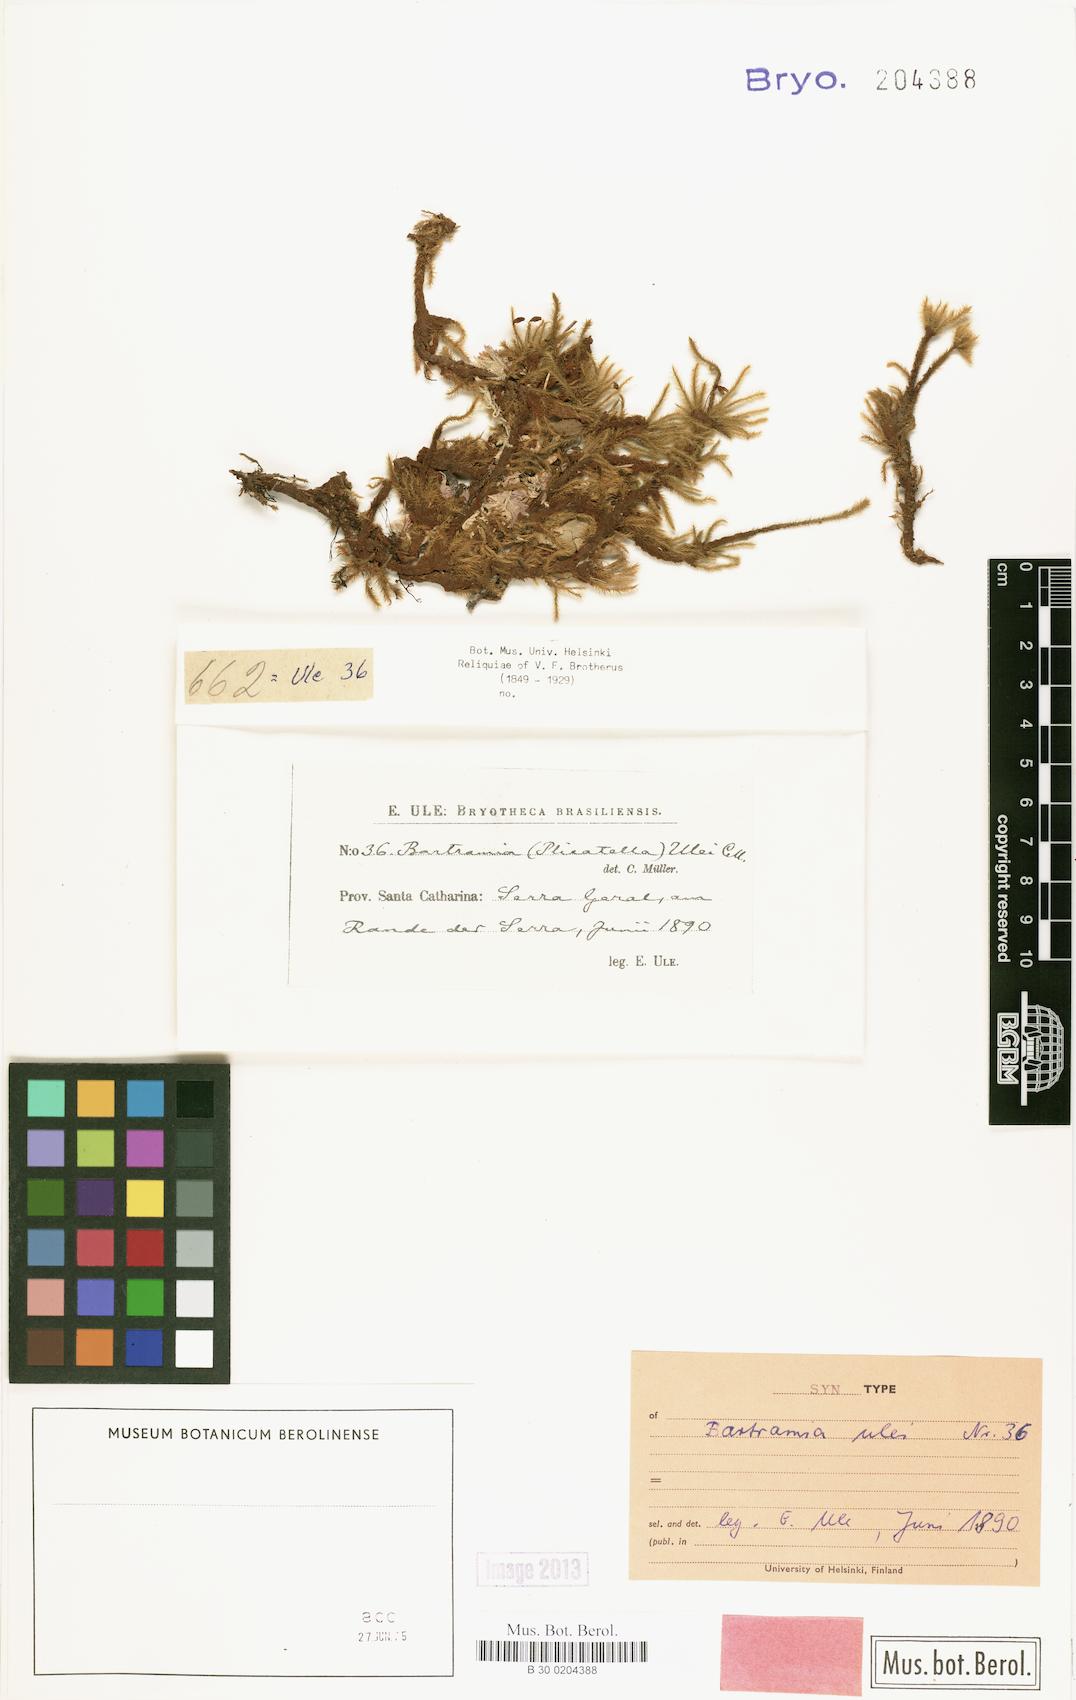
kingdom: Plantae
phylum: Bryophyta
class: Bryopsida
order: Bartramiales
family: Bartramiaceae
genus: Breutelia
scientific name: Breutelia subtomentosa
